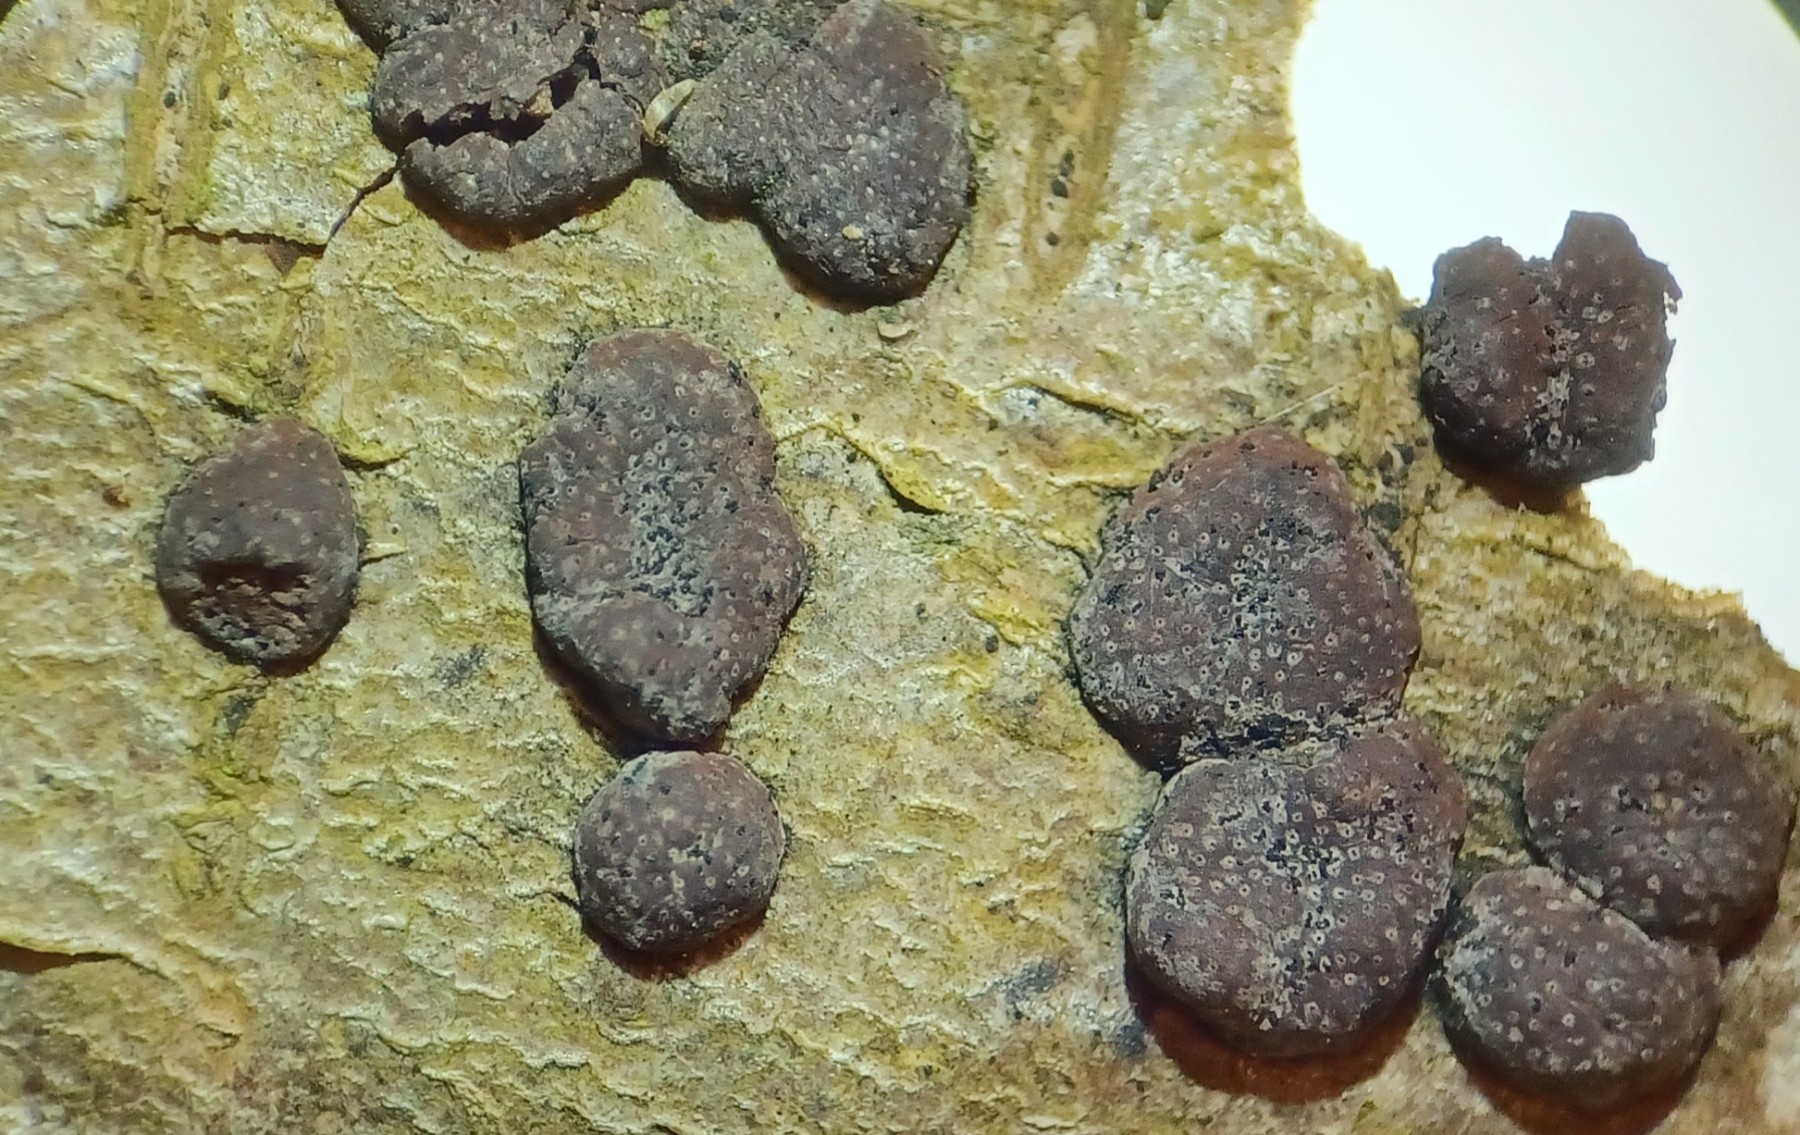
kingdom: Fungi
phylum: Ascomycota
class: Sordariomycetes
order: Xylariales
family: Hypoxylaceae
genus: Hypoxylon
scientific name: Hypoxylon fuscum
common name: kegleformet kulbær
